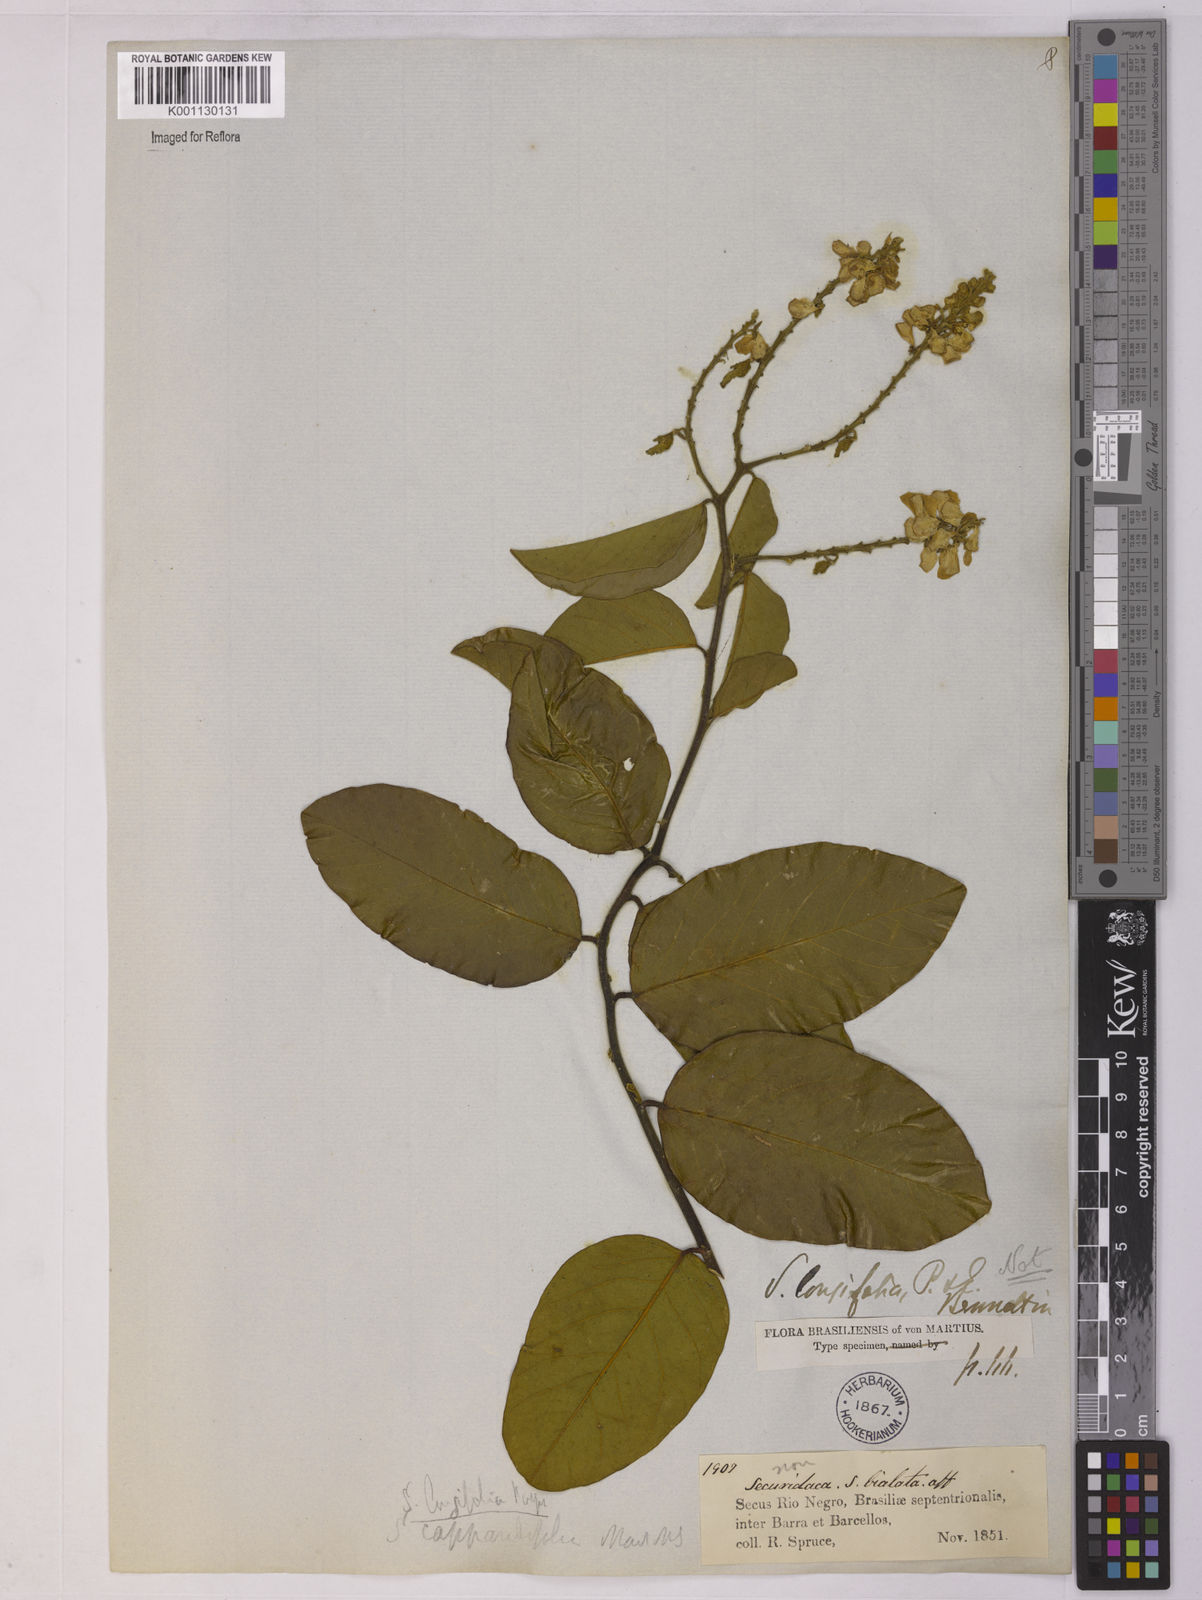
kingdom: Plantae
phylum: Tracheophyta
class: Magnoliopsida
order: Fabales
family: Polygalaceae
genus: Securidaca
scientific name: Securidaca longifolia
